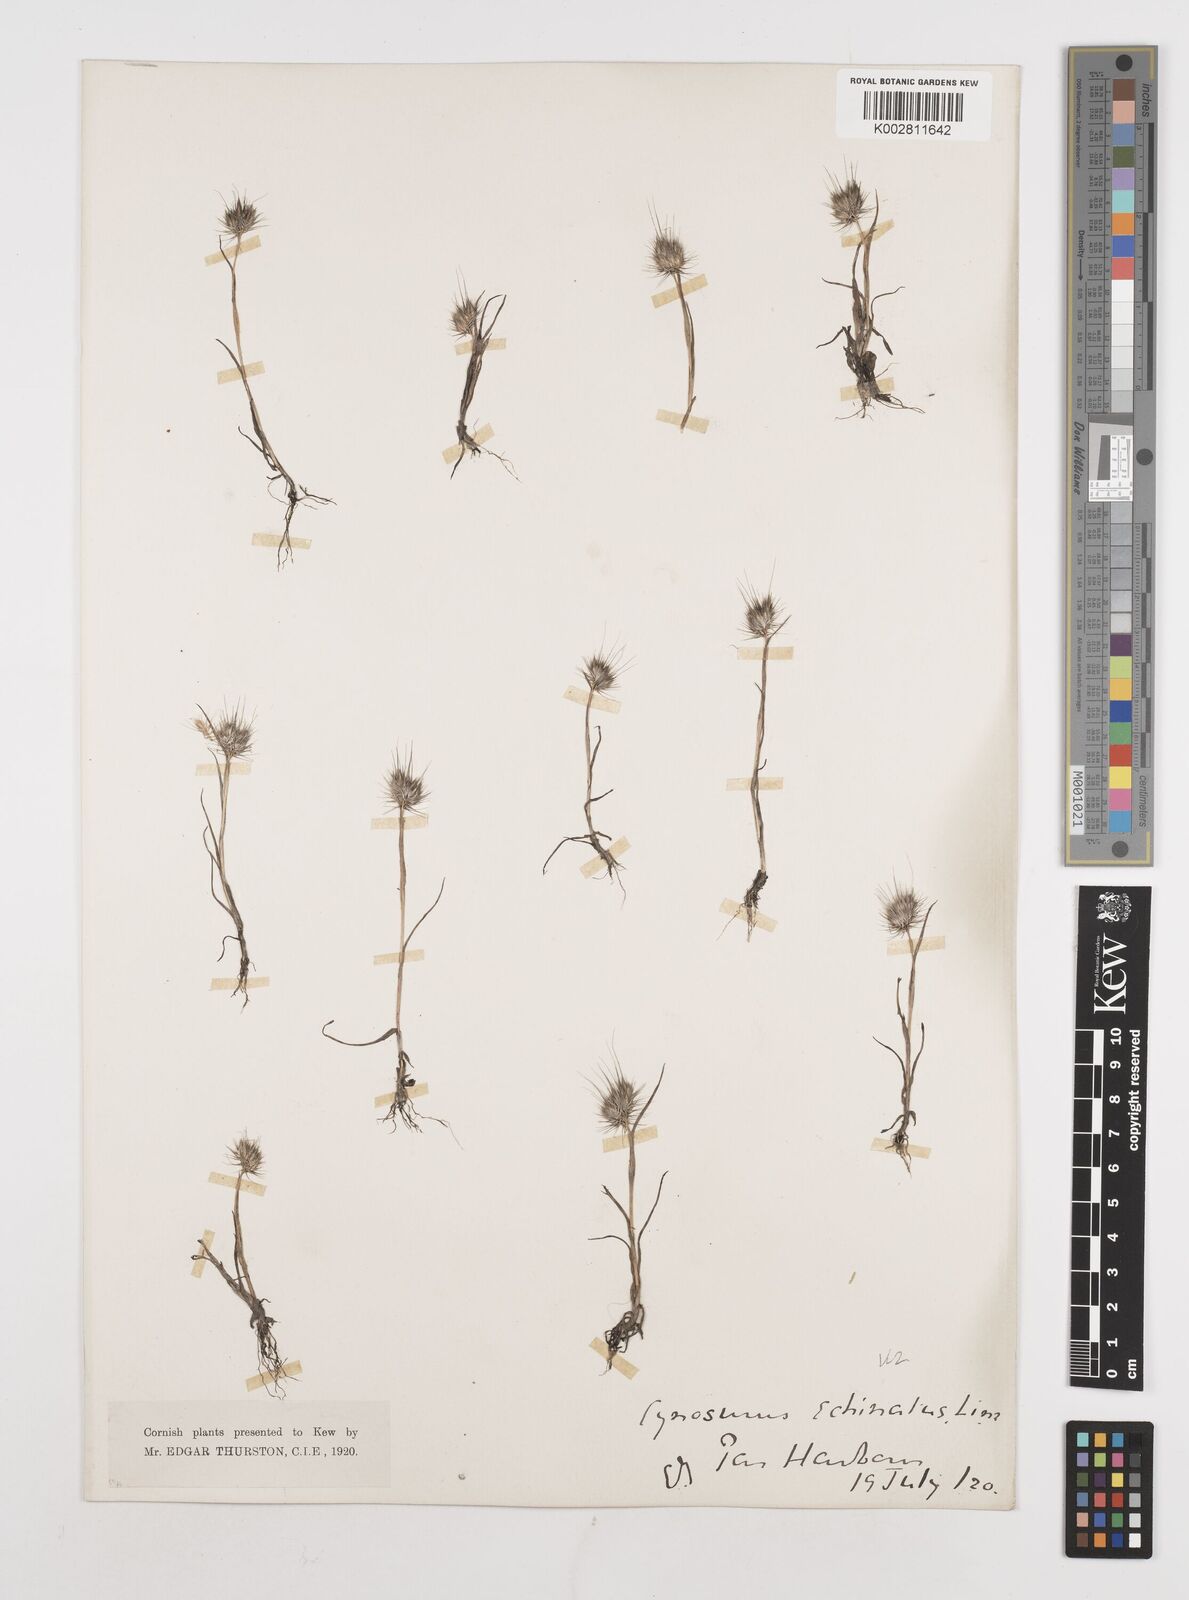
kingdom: Plantae
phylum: Tracheophyta
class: Liliopsida
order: Poales
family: Poaceae
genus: Cynosurus
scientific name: Cynosurus echinatus
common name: Rough dog's-tail
